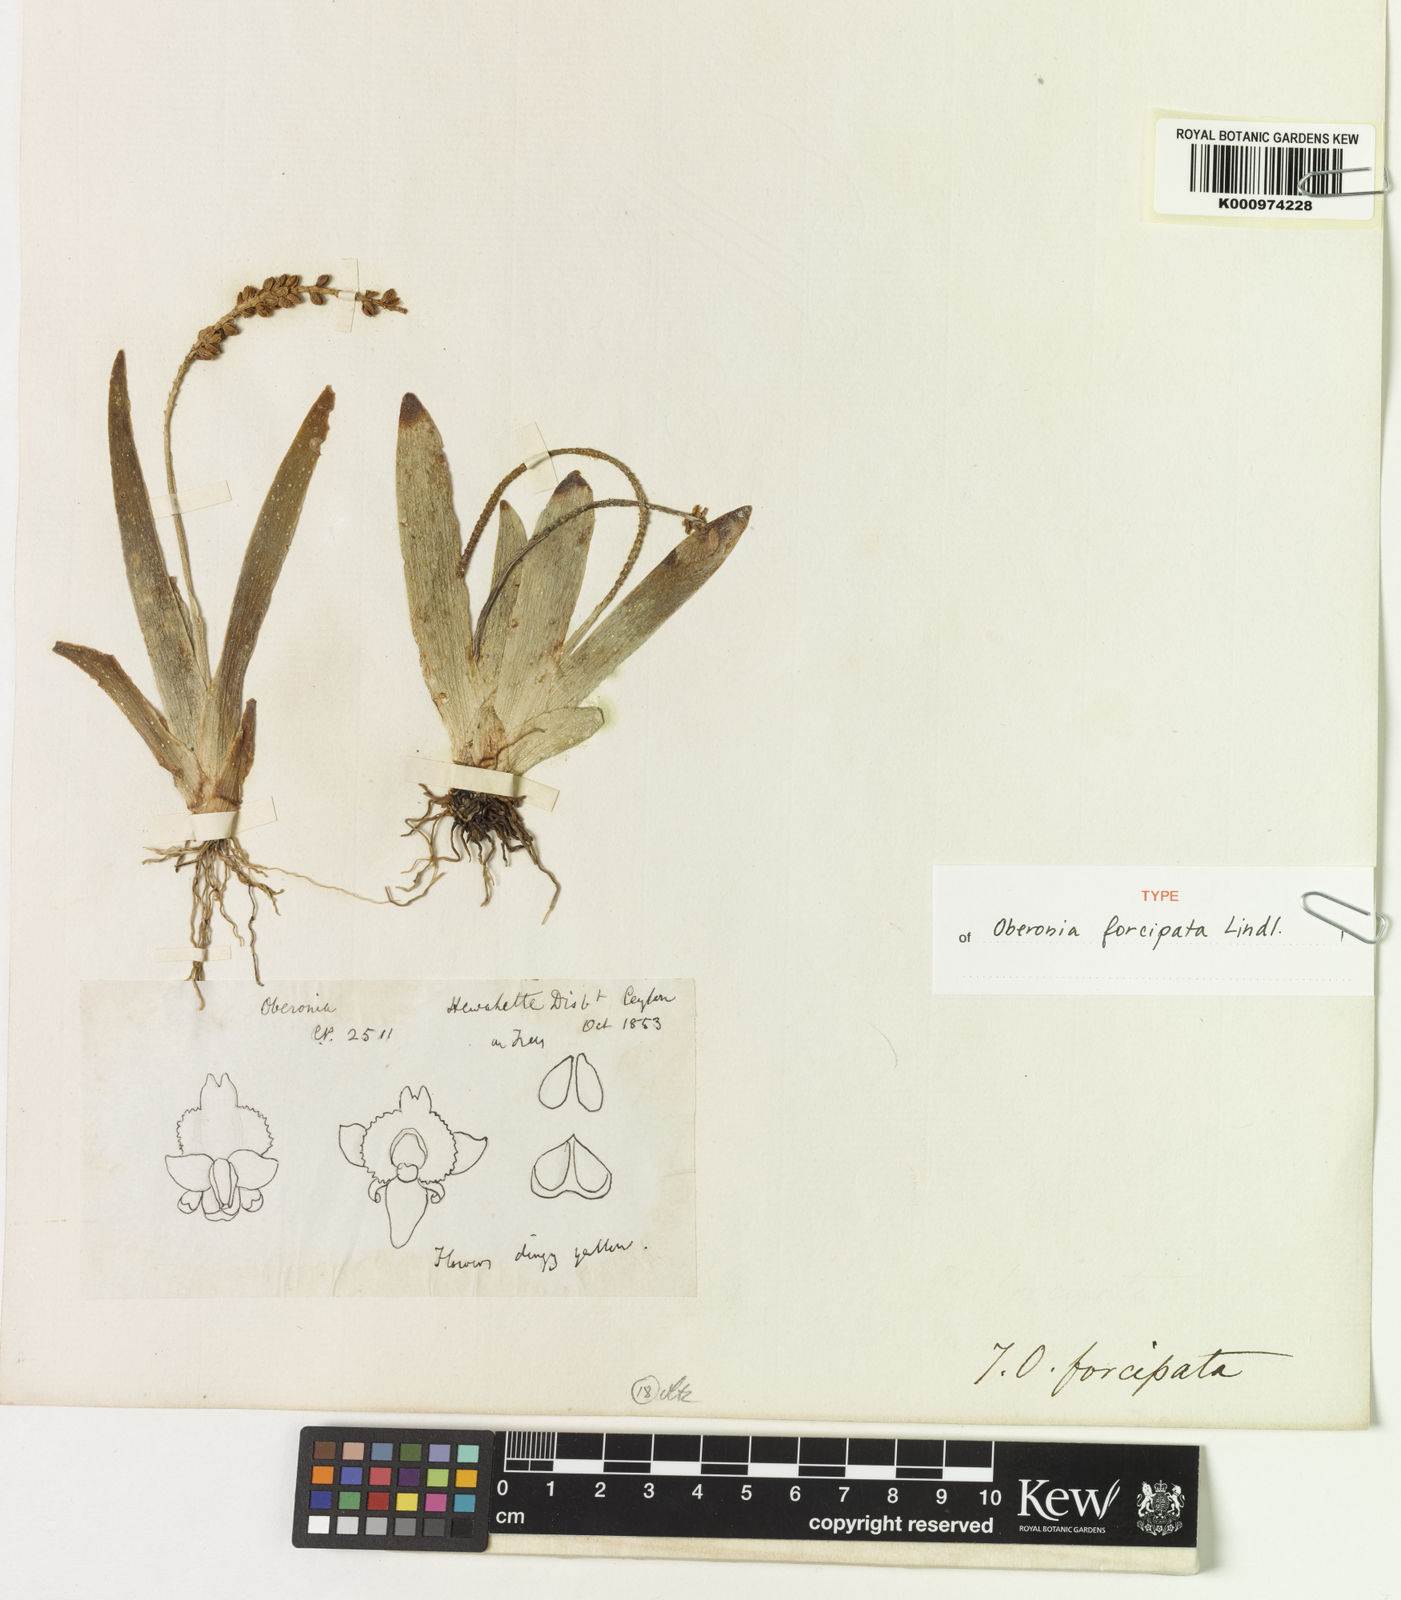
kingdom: Plantae
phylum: Tracheophyta
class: Liliopsida
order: Asparagales
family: Orchidaceae
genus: Oberonia
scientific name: Oberonia forcipata
